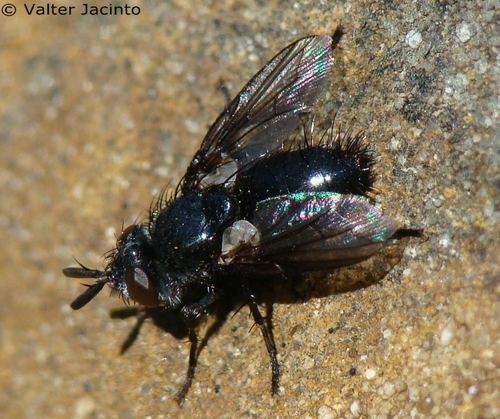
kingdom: Animalia
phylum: Arthropoda
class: Insecta
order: Diptera
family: Tachinidae
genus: Wagneria
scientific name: Wagneria cunctans
